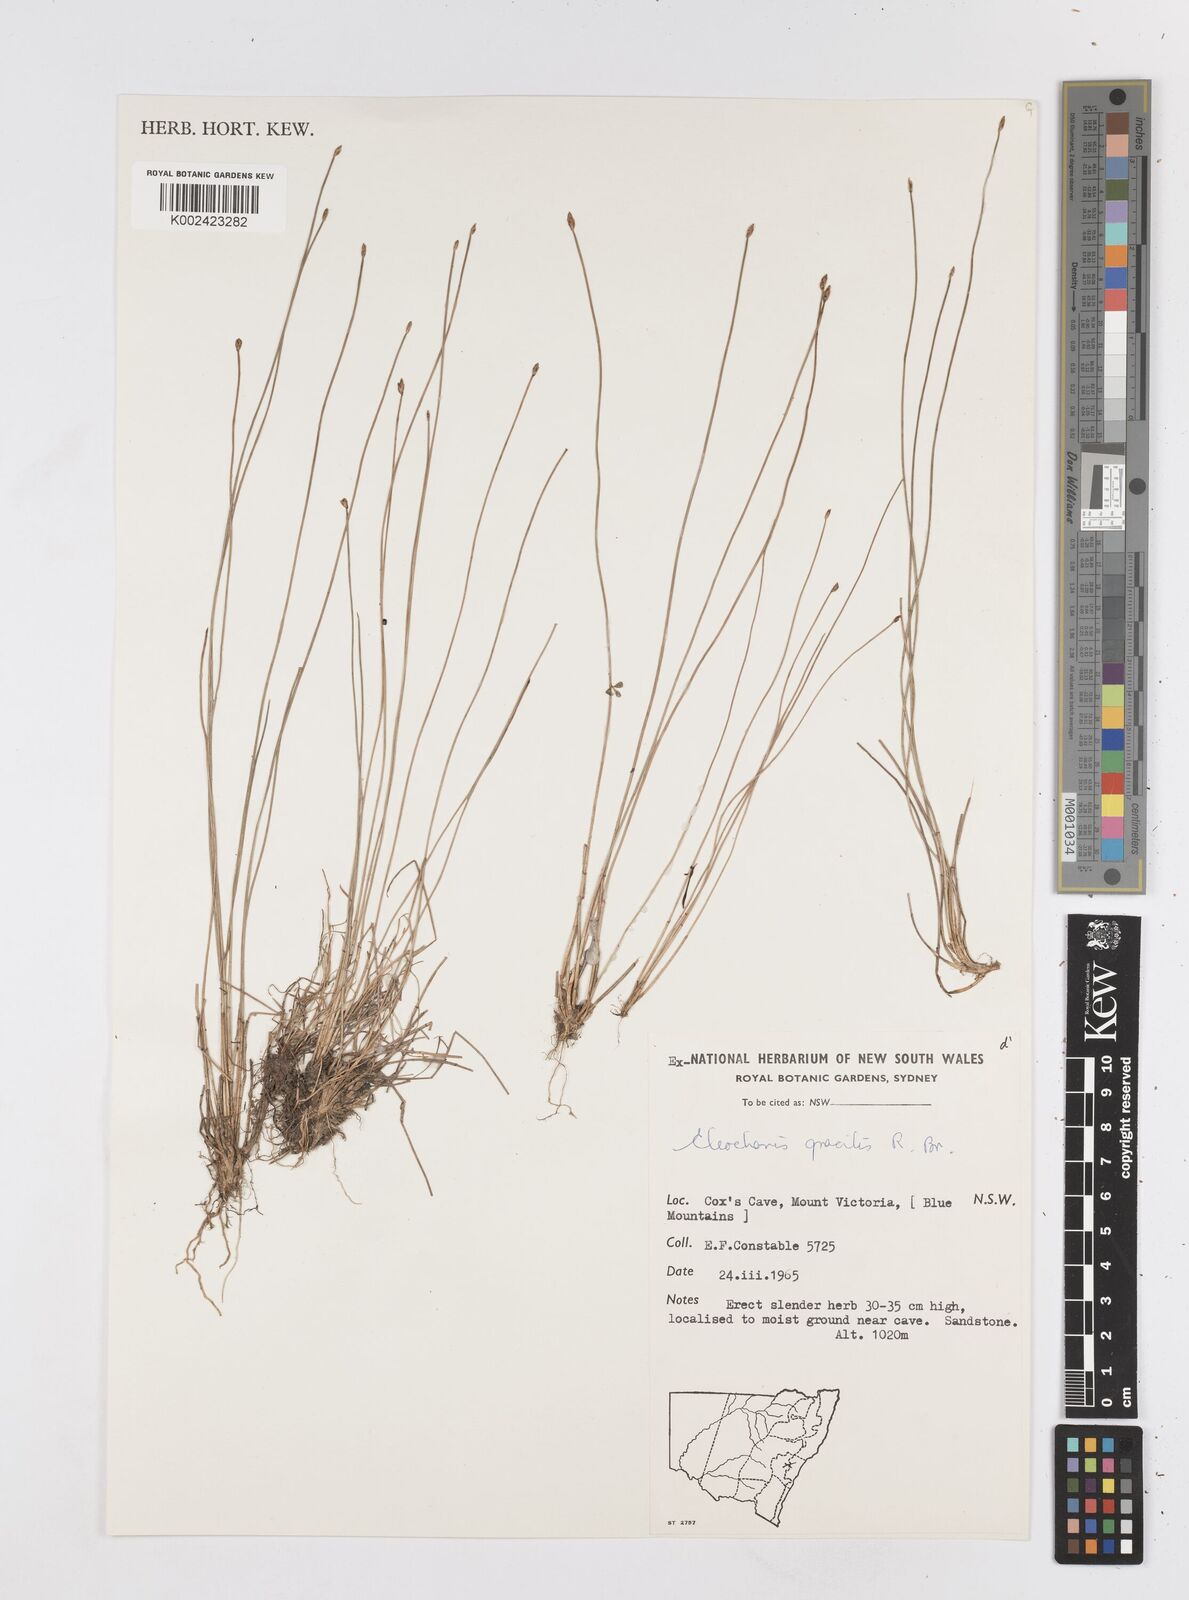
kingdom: Plantae
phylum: Tracheophyta
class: Liliopsida
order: Poales
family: Cyperaceae
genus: Eleocharis
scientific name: Eleocharis multicaulis
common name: Many-stalked spike-rush
